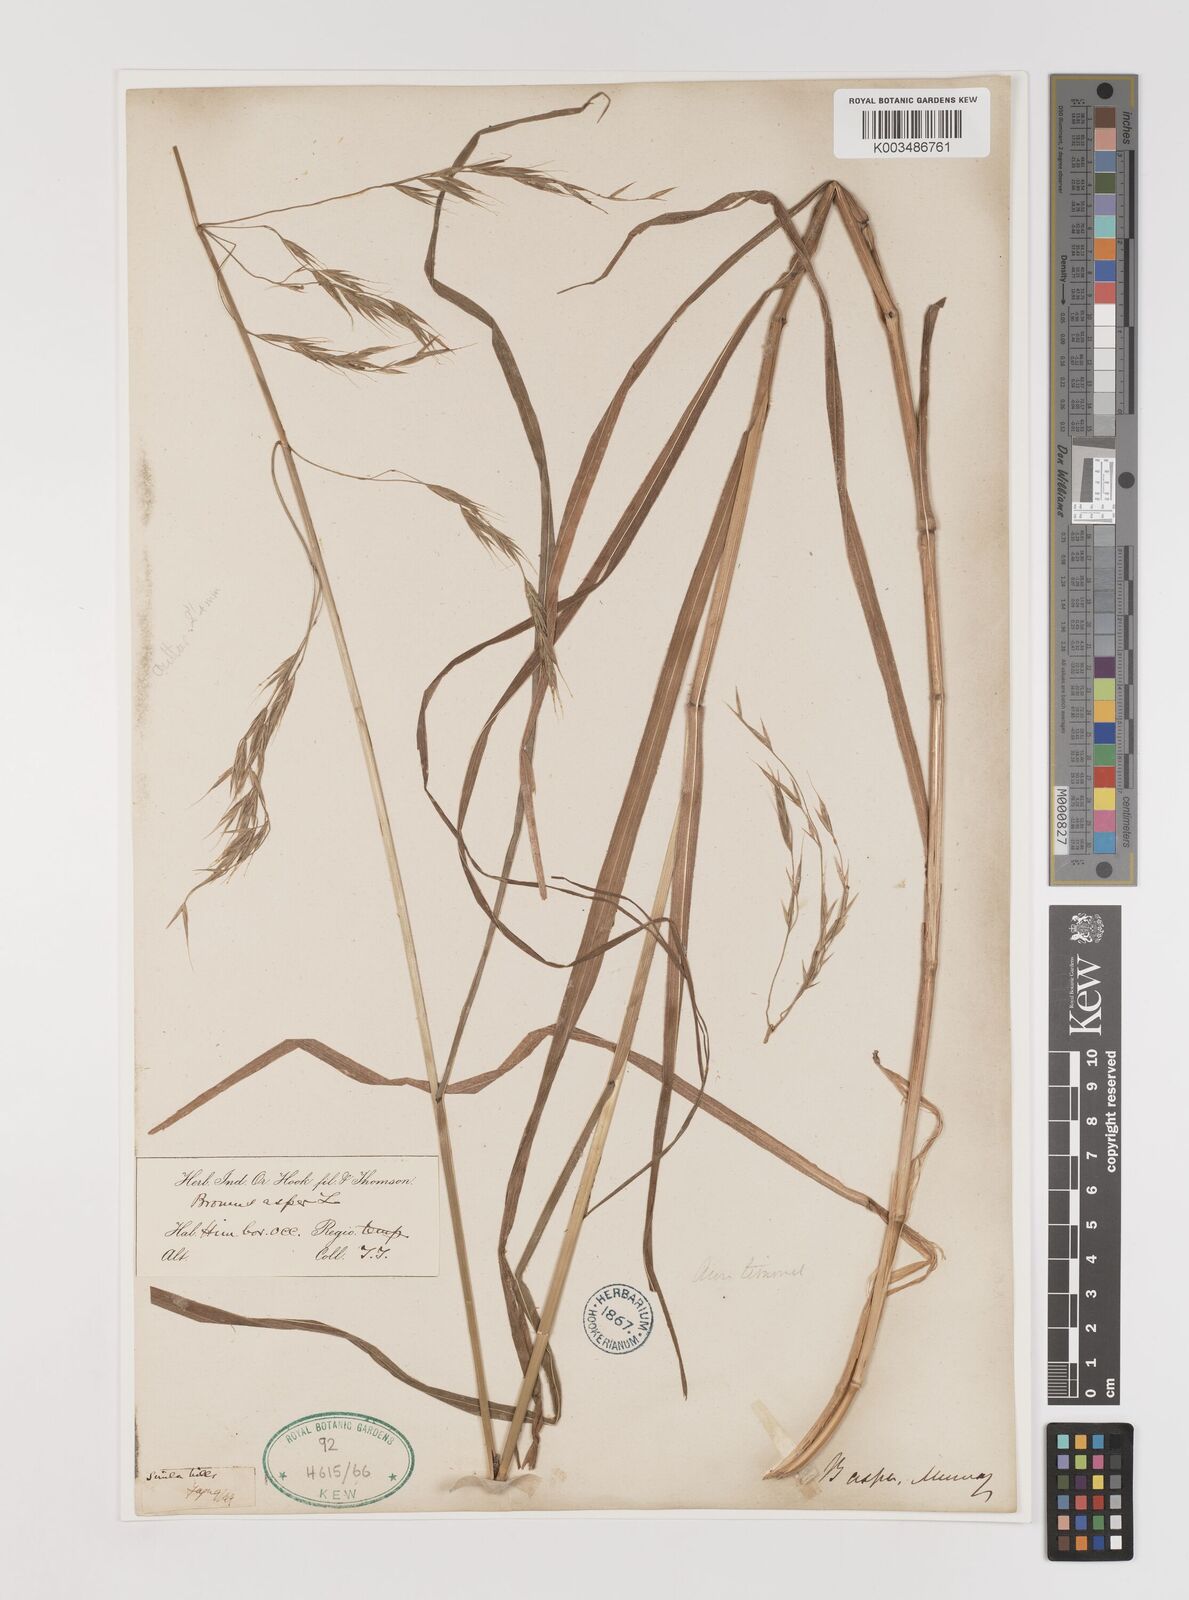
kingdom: Plantae
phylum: Tracheophyta
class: Liliopsida
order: Poales
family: Poaceae
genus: Brachypodium
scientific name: Brachypodium retusum
